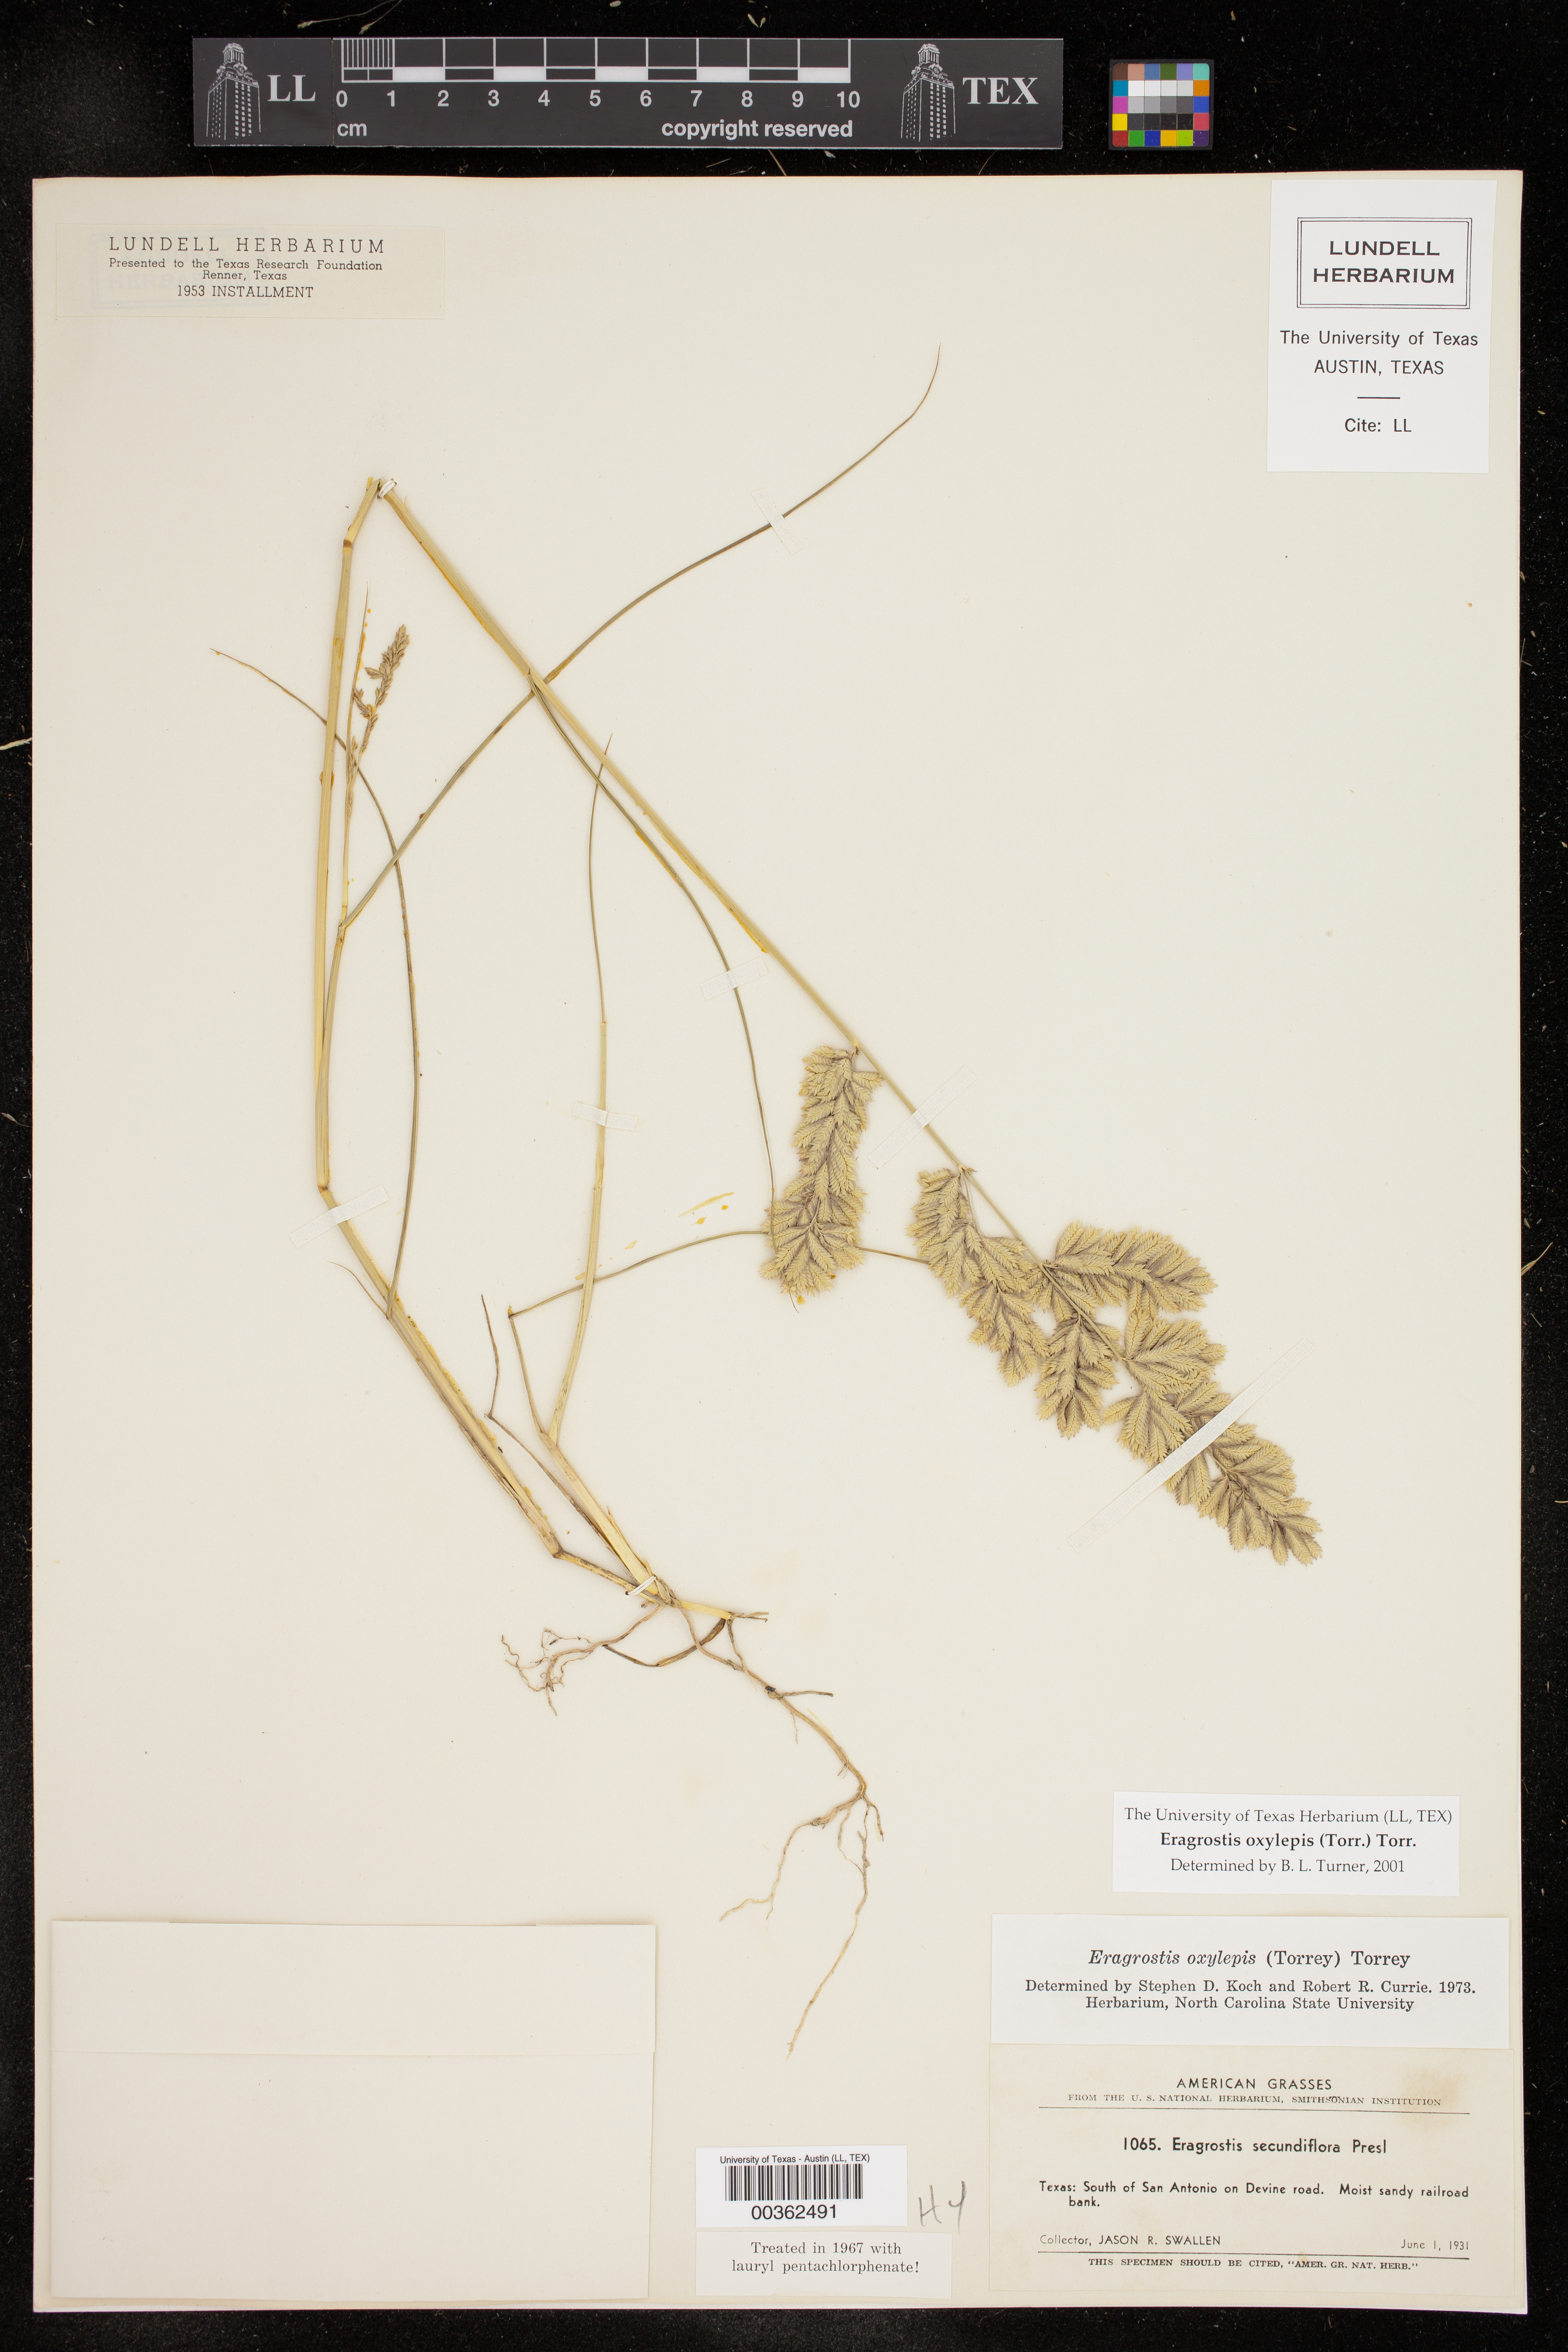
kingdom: Plantae
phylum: Tracheophyta
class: Liliopsida
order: Poales
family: Poaceae
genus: Eragrostis
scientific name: Eragrostis secundiflora
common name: Red love grass
